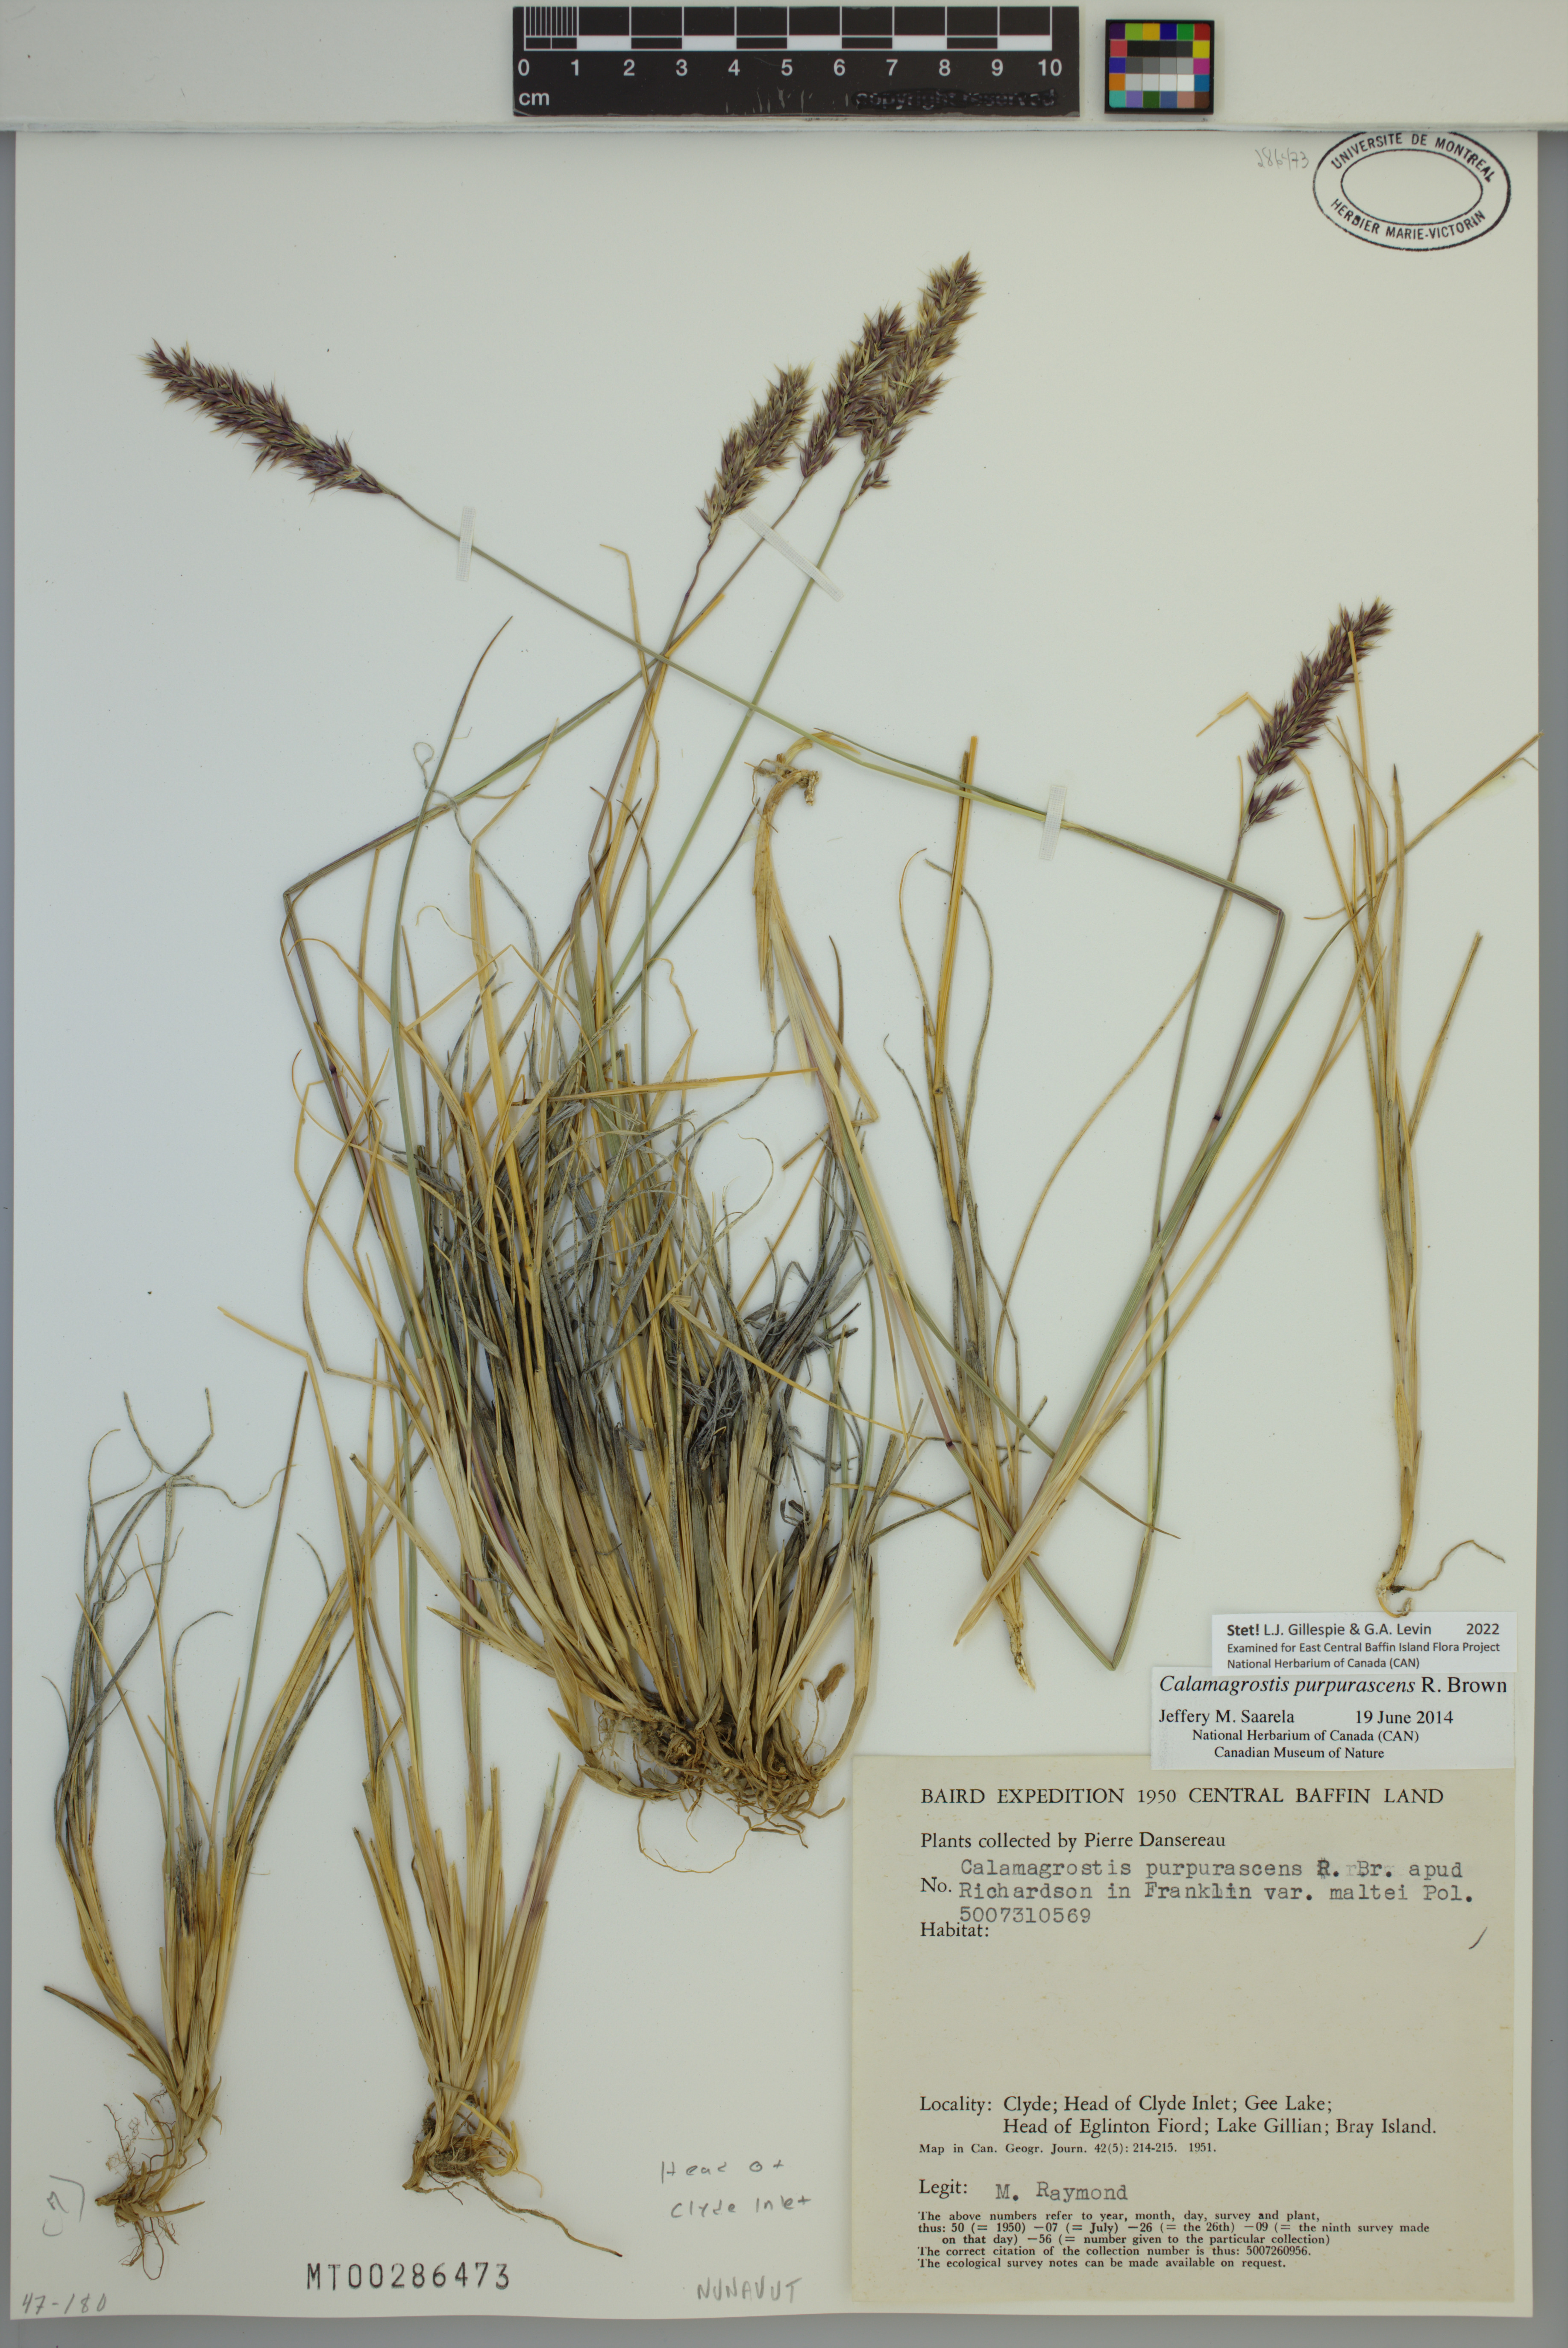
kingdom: Plantae
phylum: Tracheophyta
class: Liliopsida
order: Poales
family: Poaceae
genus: Calamagrostis
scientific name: Calamagrostis purpurascens
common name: Purple reedgrass
